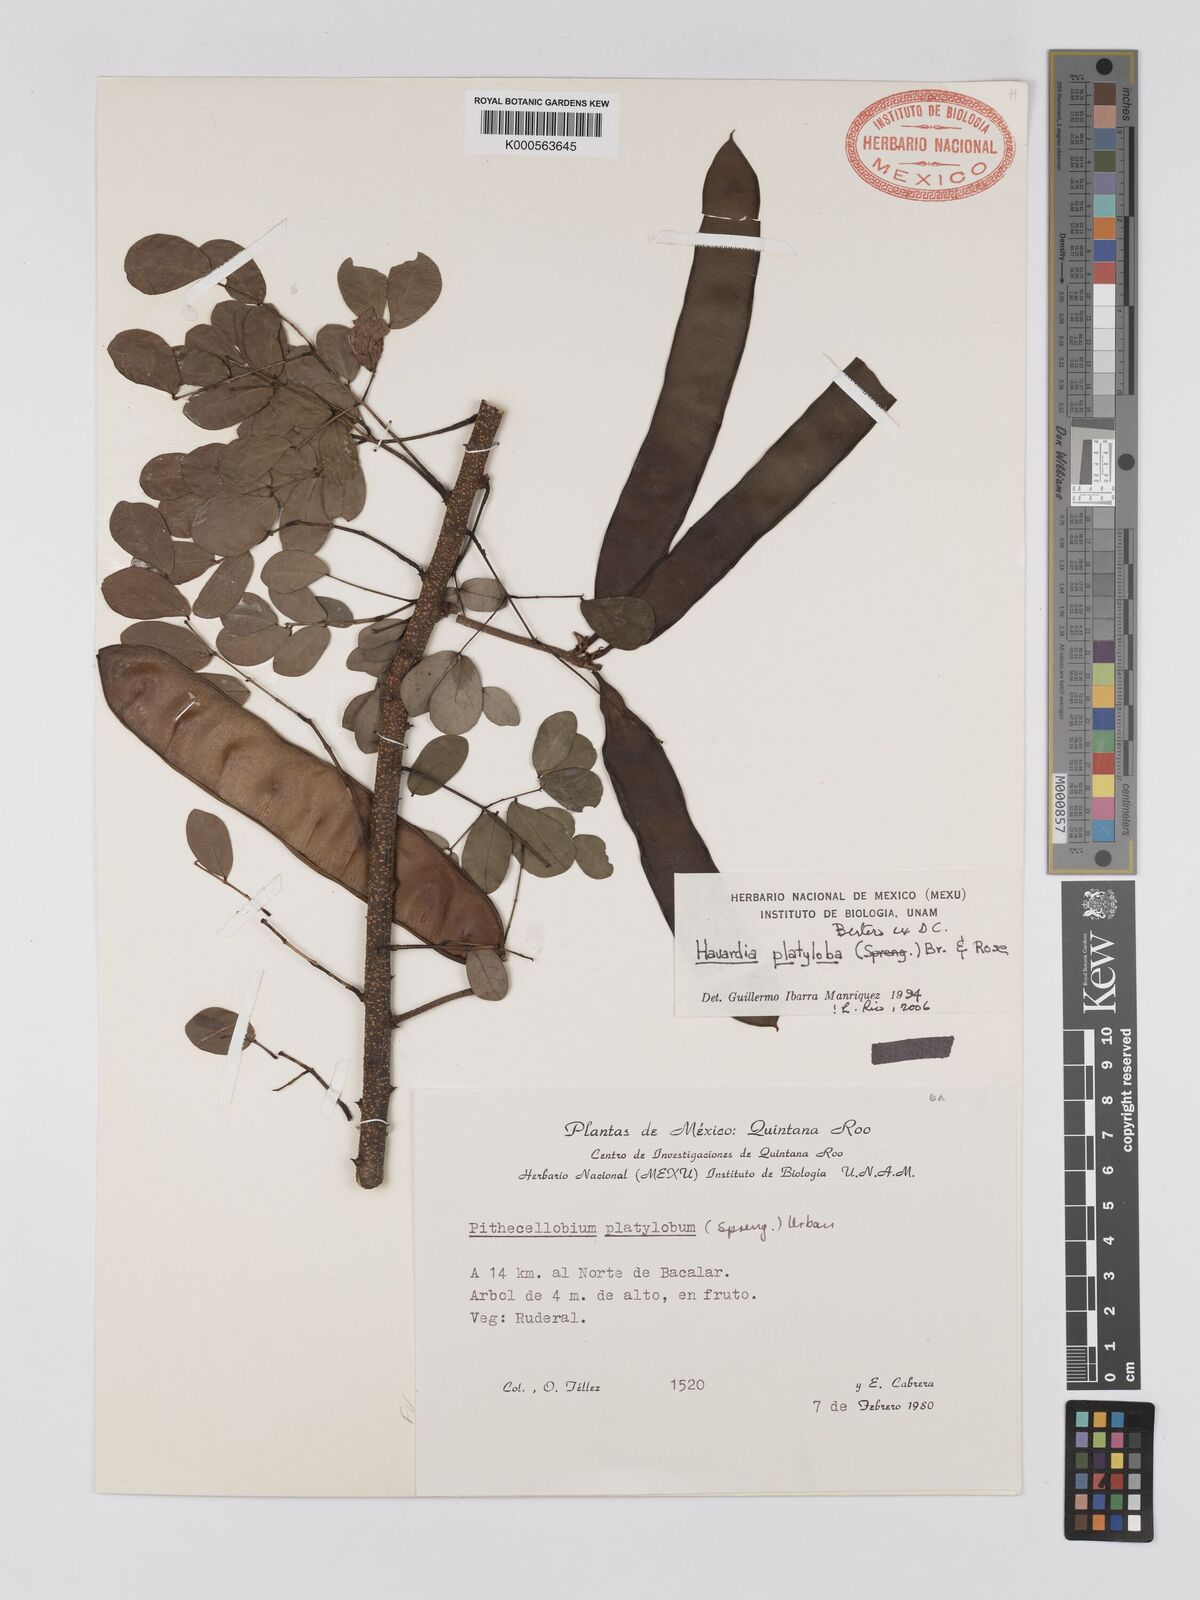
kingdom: Plantae
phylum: Tracheophyta
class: Magnoliopsida
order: Fabales
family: Fabaceae
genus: Havardia
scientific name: Havardia platyloba
